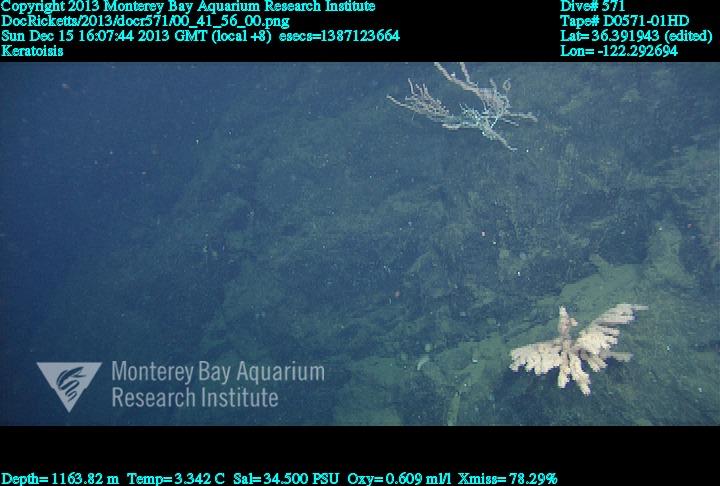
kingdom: Animalia
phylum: Cnidaria
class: Anthozoa
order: Scleralcyonacea
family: Keratoisididae
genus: Keratoisis
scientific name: Keratoisis
